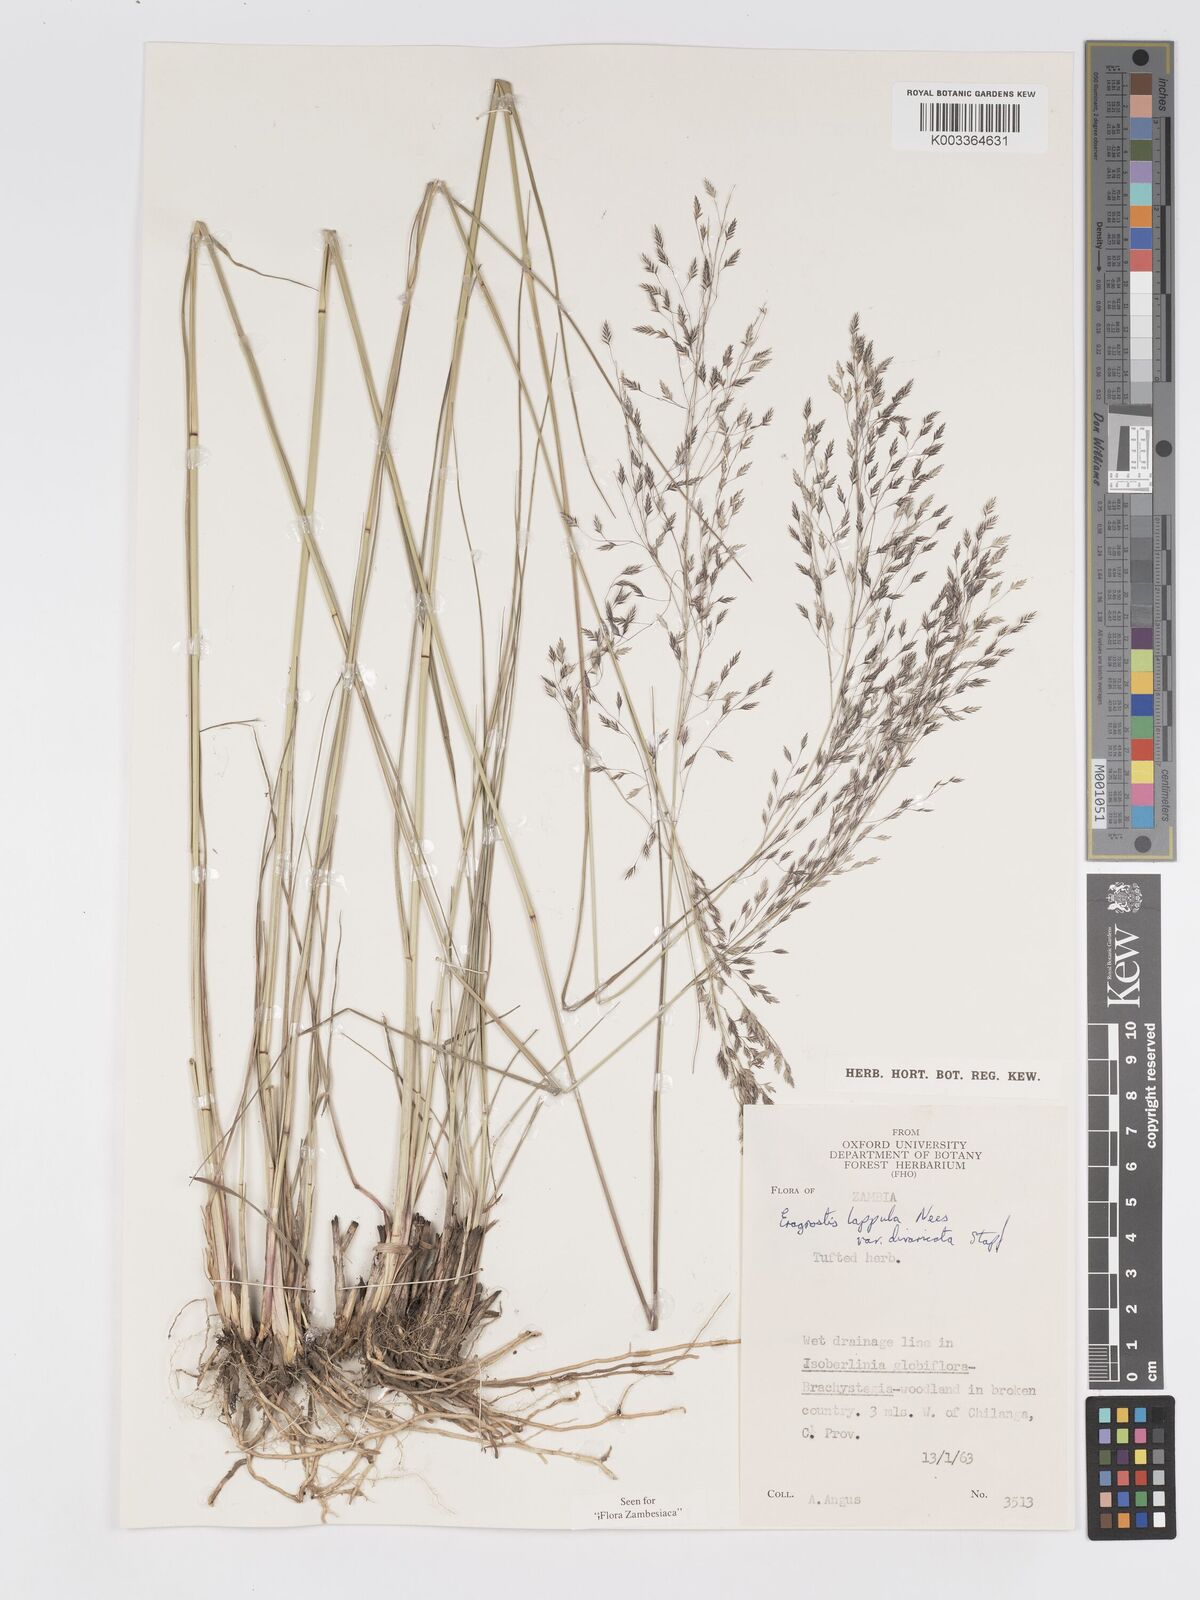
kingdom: Plantae
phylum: Tracheophyta
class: Liliopsida
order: Poales
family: Poaceae
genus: Eragrostis
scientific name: Eragrostis lappula
